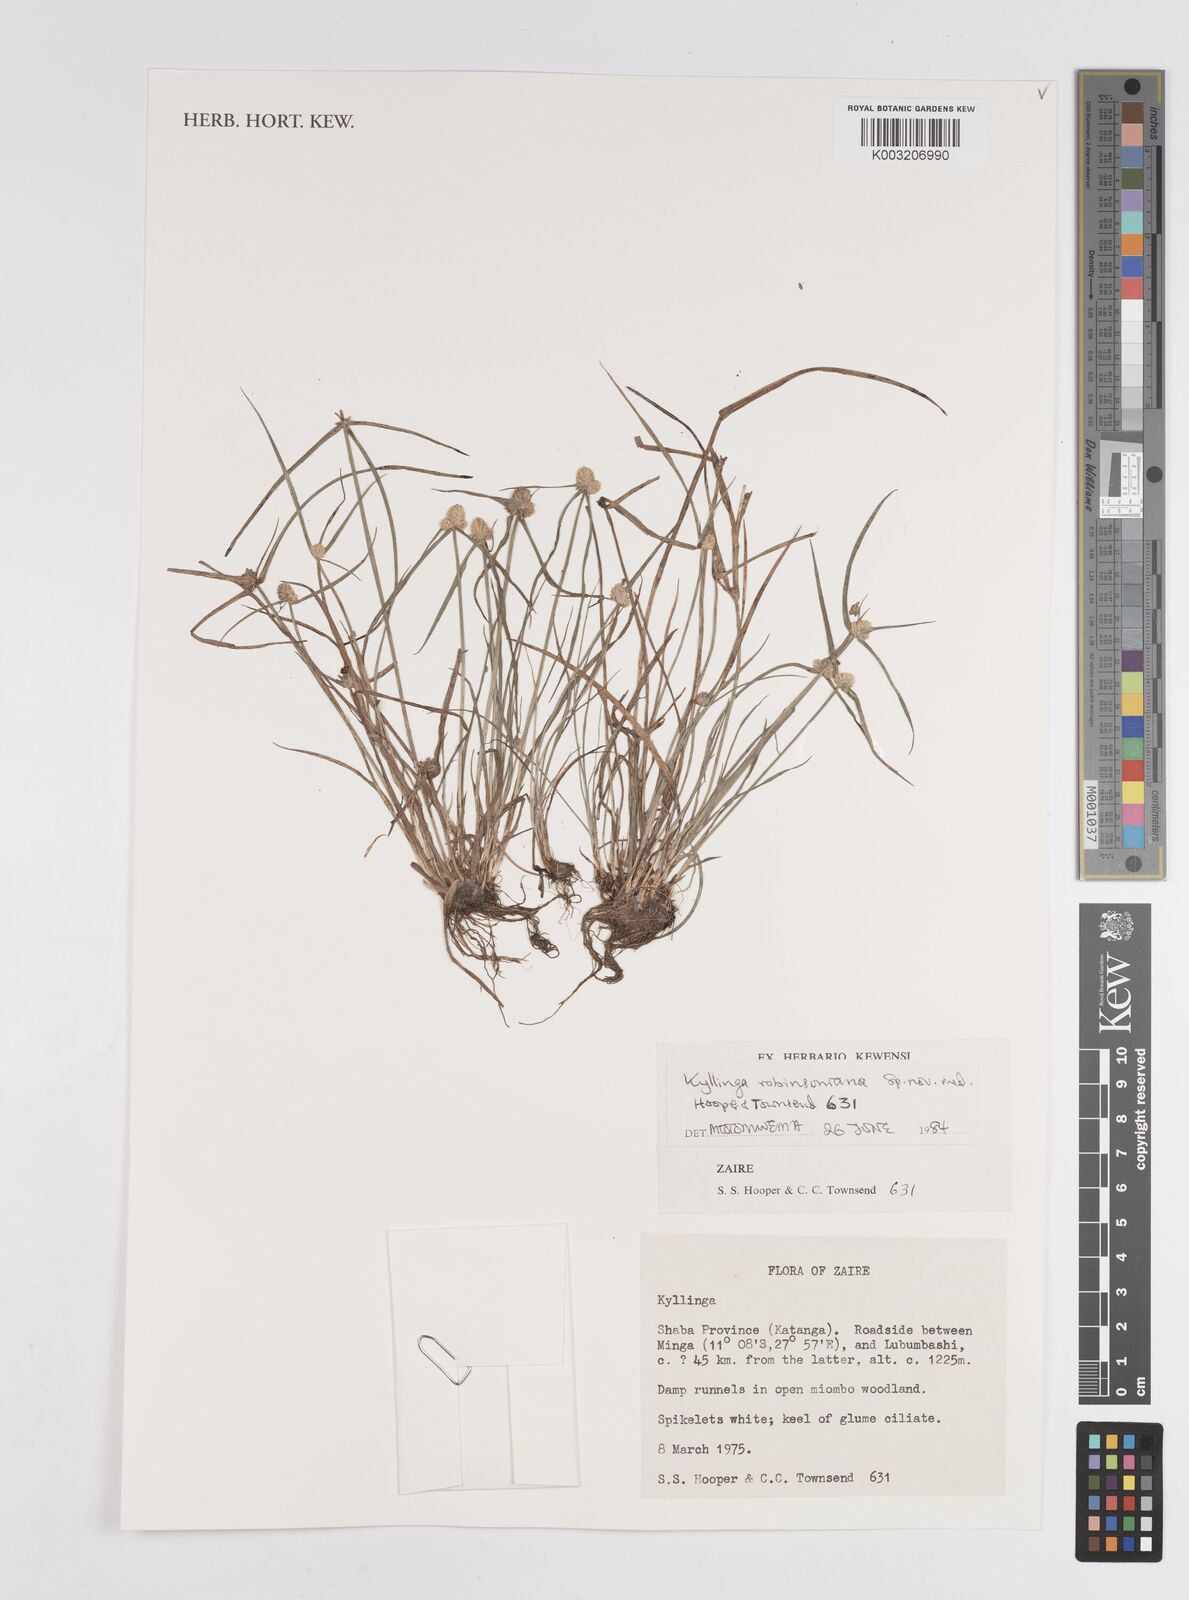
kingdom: Plantae
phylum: Tracheophyta
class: Liliopsida
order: Poales
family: Cyperaceae
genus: Cyperus
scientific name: Cyperus robinsonianus
